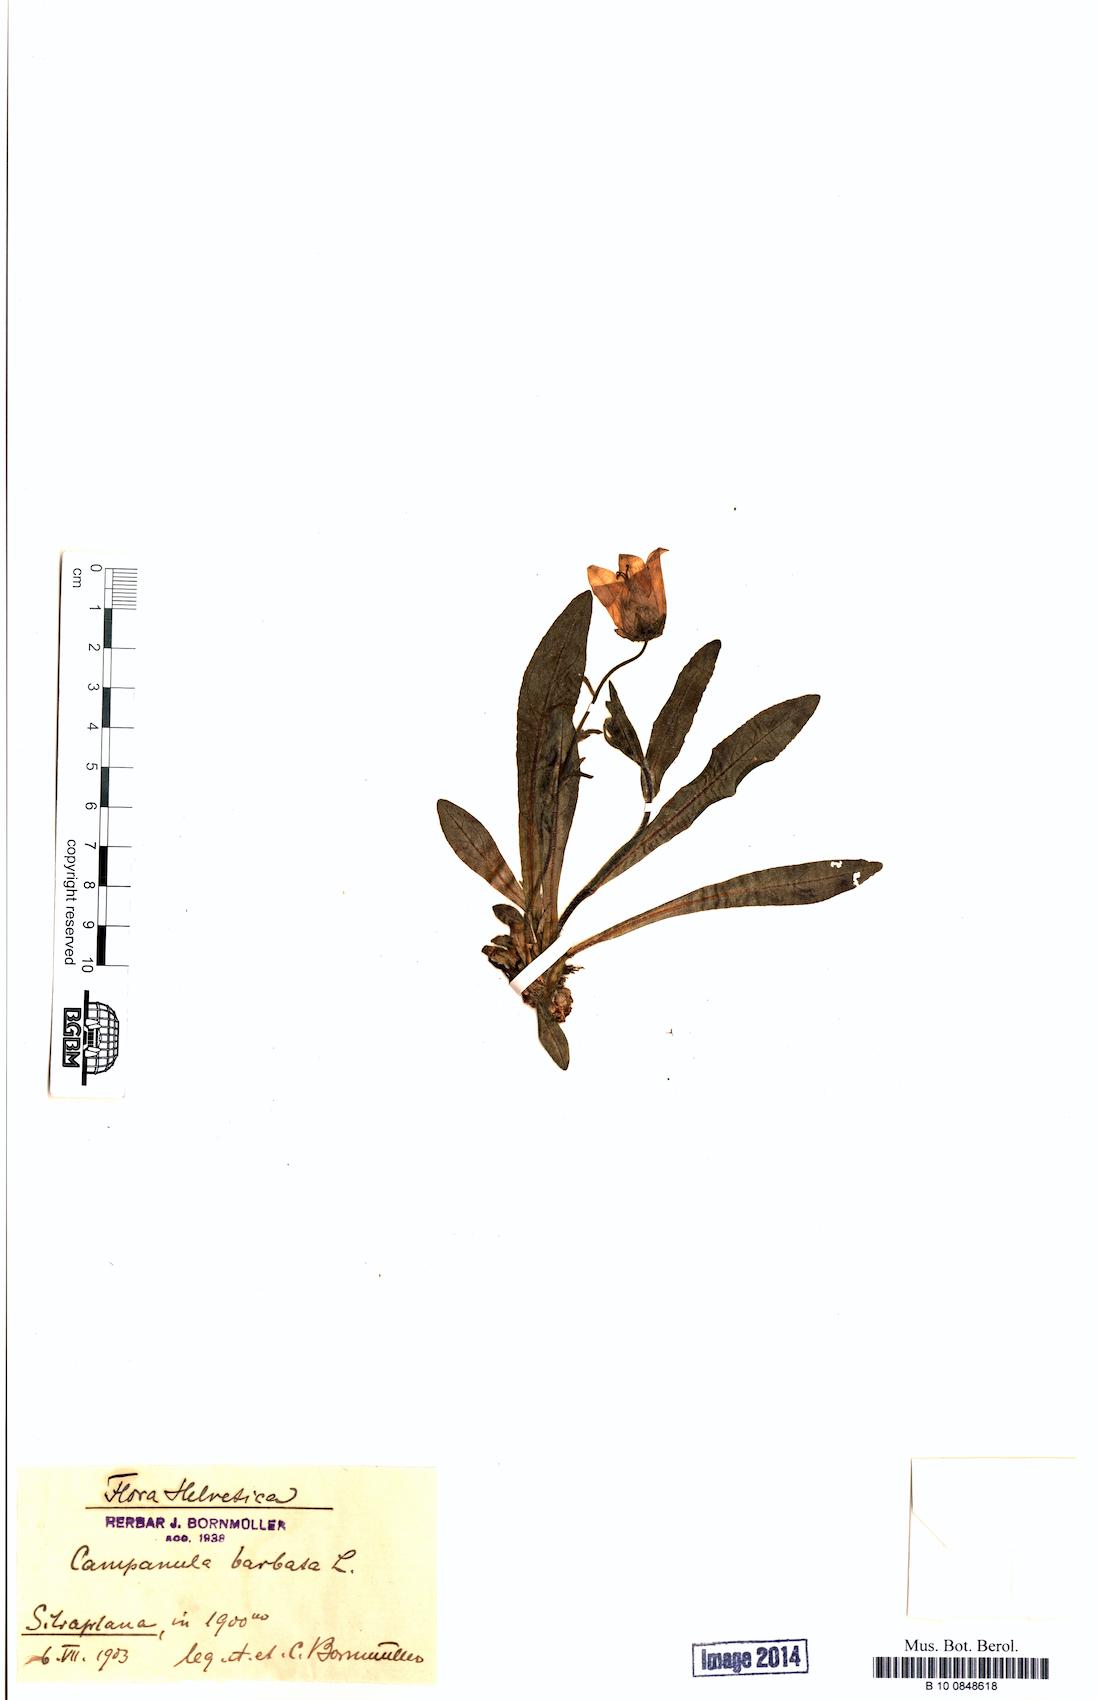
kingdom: Plantae
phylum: Tracheophyta
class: Magnoliopsida
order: Asterales
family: Campanulaceae
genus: Campanula
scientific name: Campanula barbata
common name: Bearded bellflower
